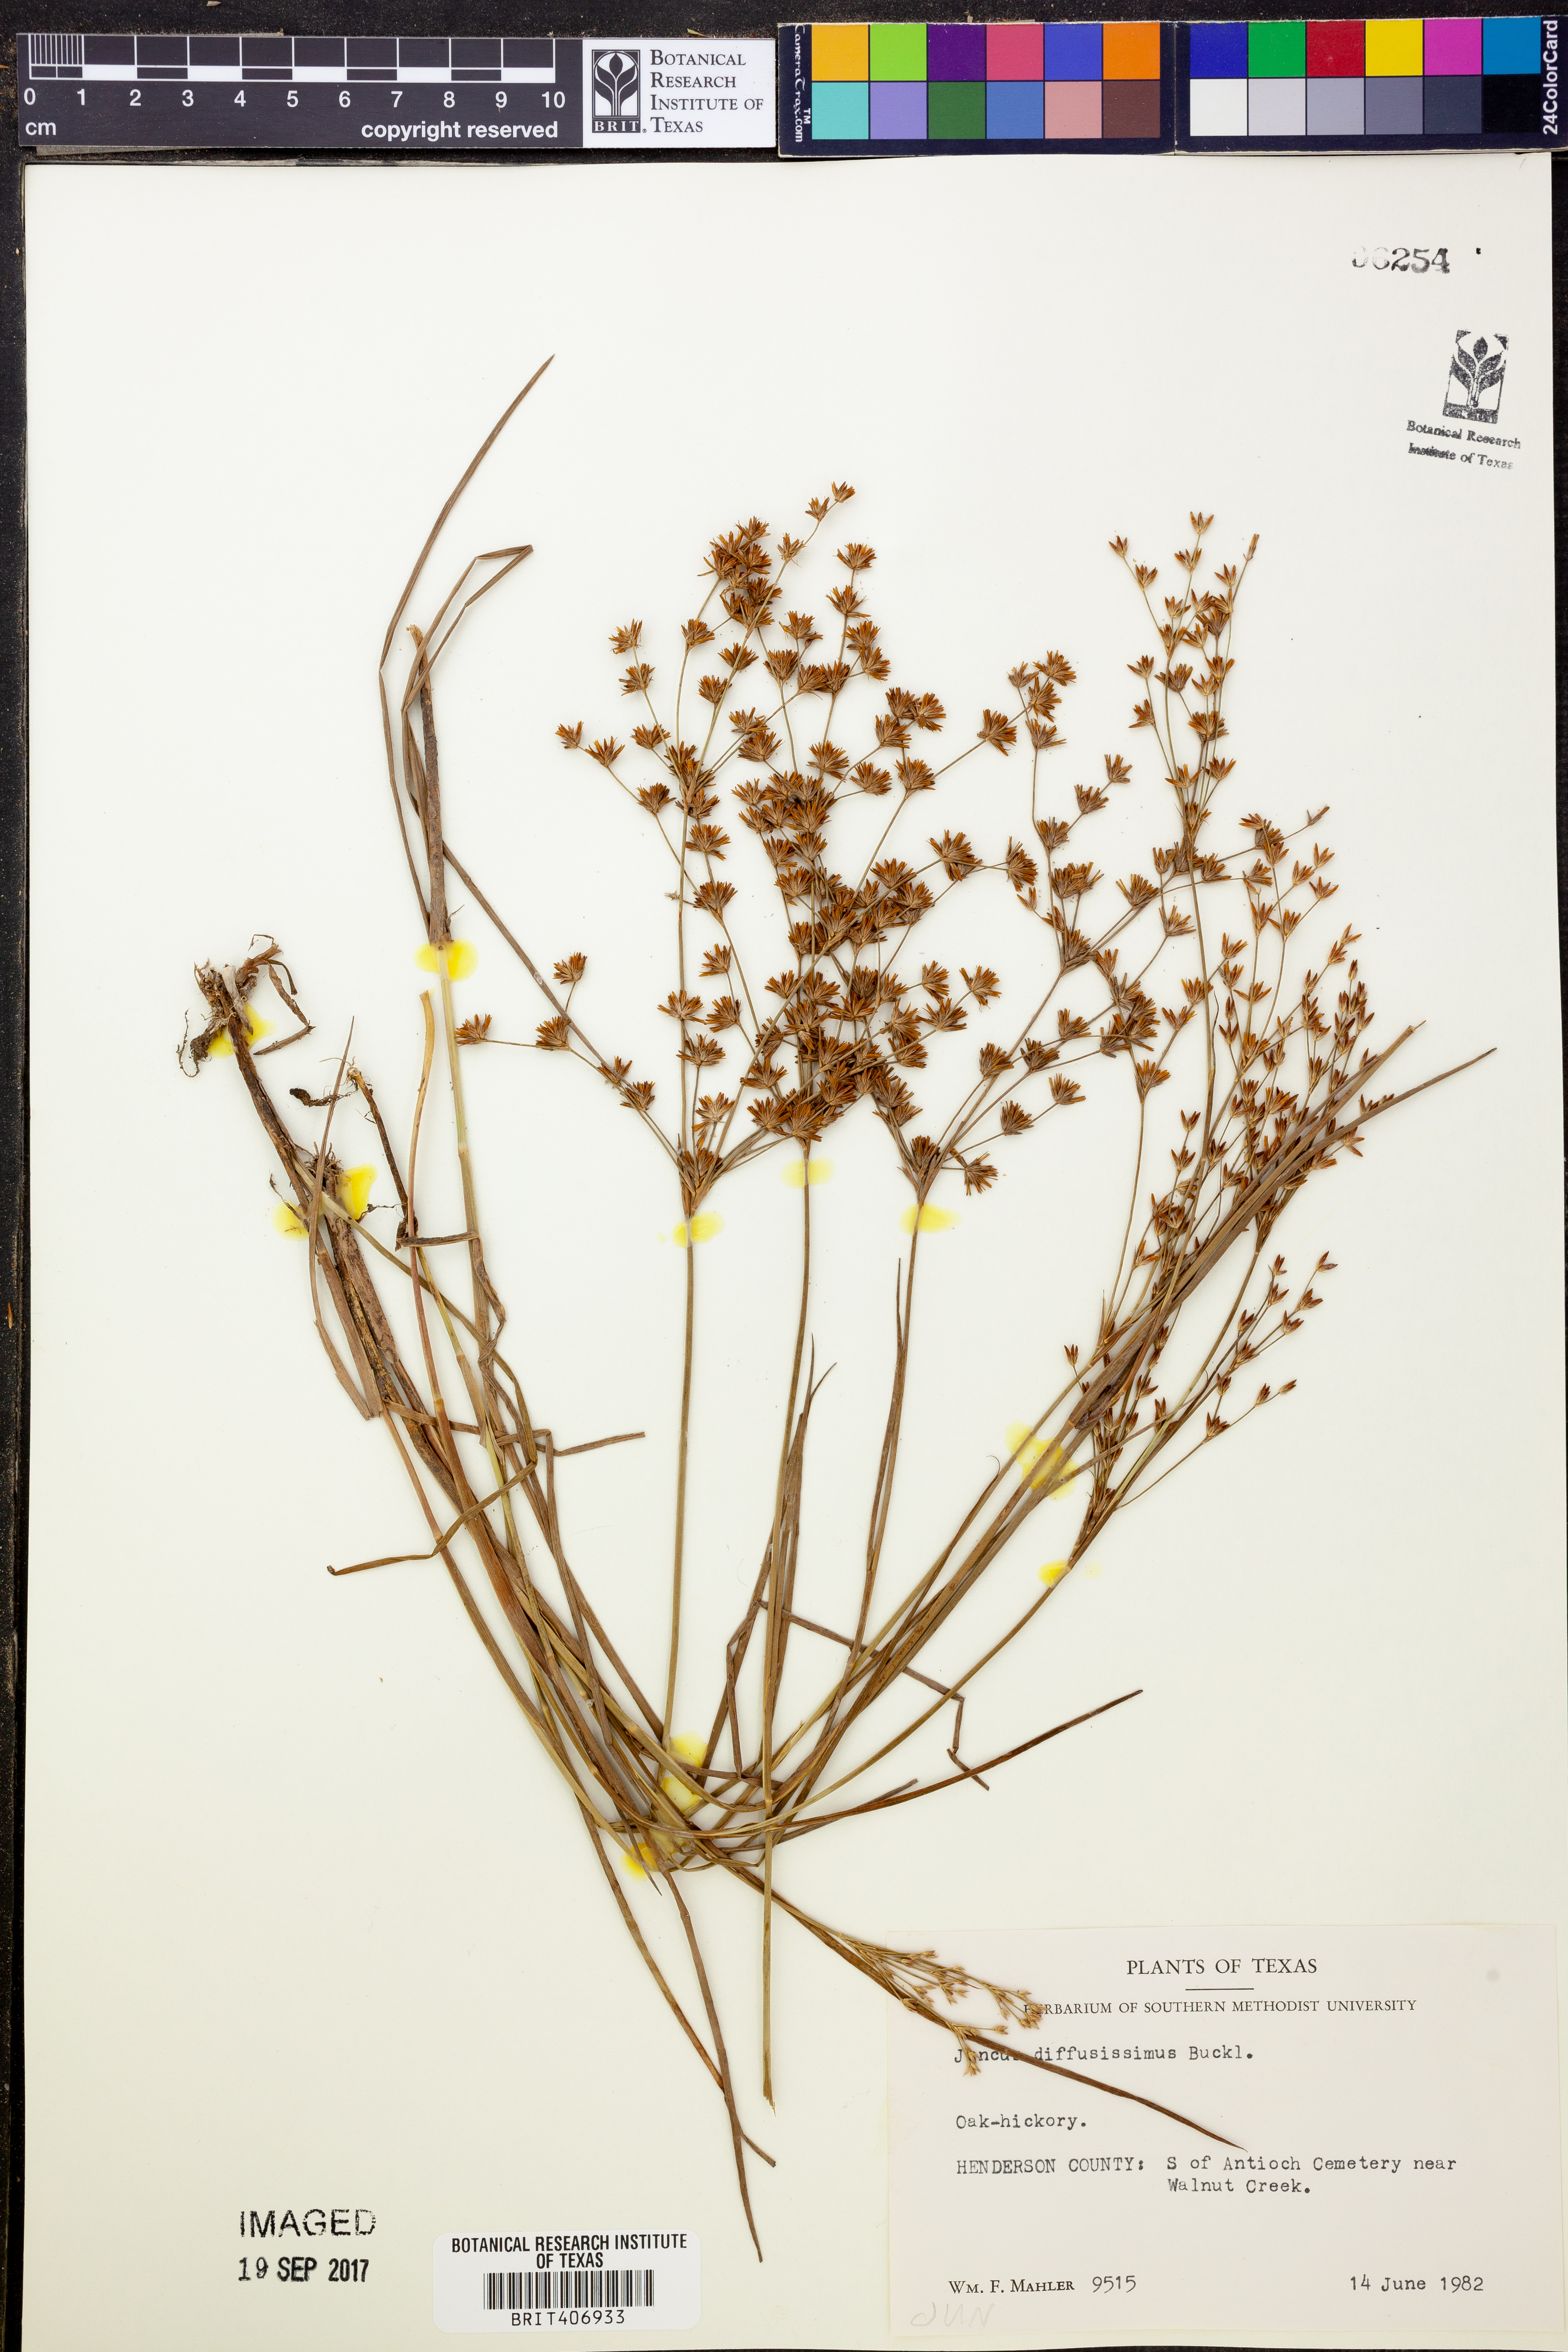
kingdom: Plantae
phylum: Tracheophyta
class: Liliopsida
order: Poales
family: Juncaceae
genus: Juncus
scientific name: Juncus diffusissimus
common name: Slimpod rush
